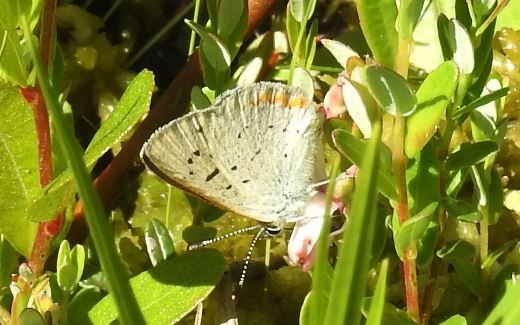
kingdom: Animalia
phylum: Arthropoda
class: Insecta
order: Lepidoptera
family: Sesiidae
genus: Sesia
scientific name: Sesia Lycaena epixanthe
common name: Bog Copper
